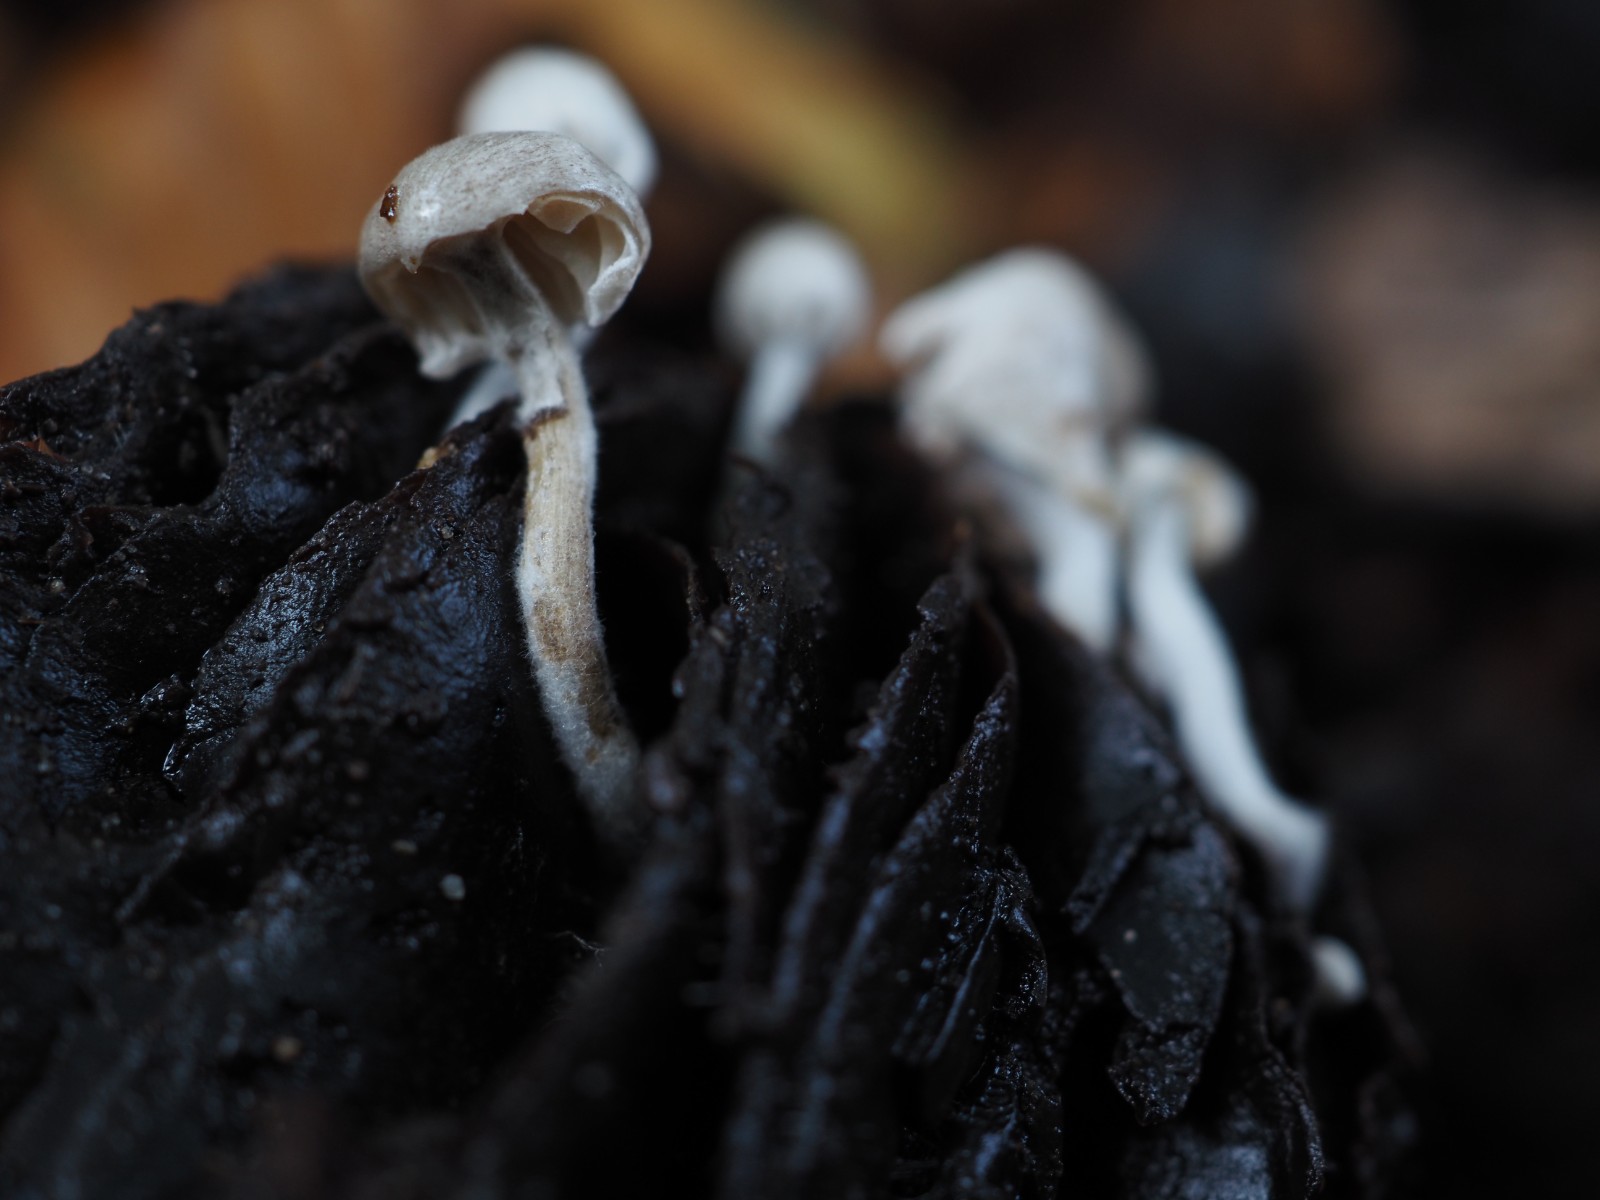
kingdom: Fungi
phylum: Basidiomycota
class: Agaricomycetes
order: Agaricales
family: Lyophyllaceae
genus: Asterophora
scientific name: Asterophora parasitica
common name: grå snyltehat
